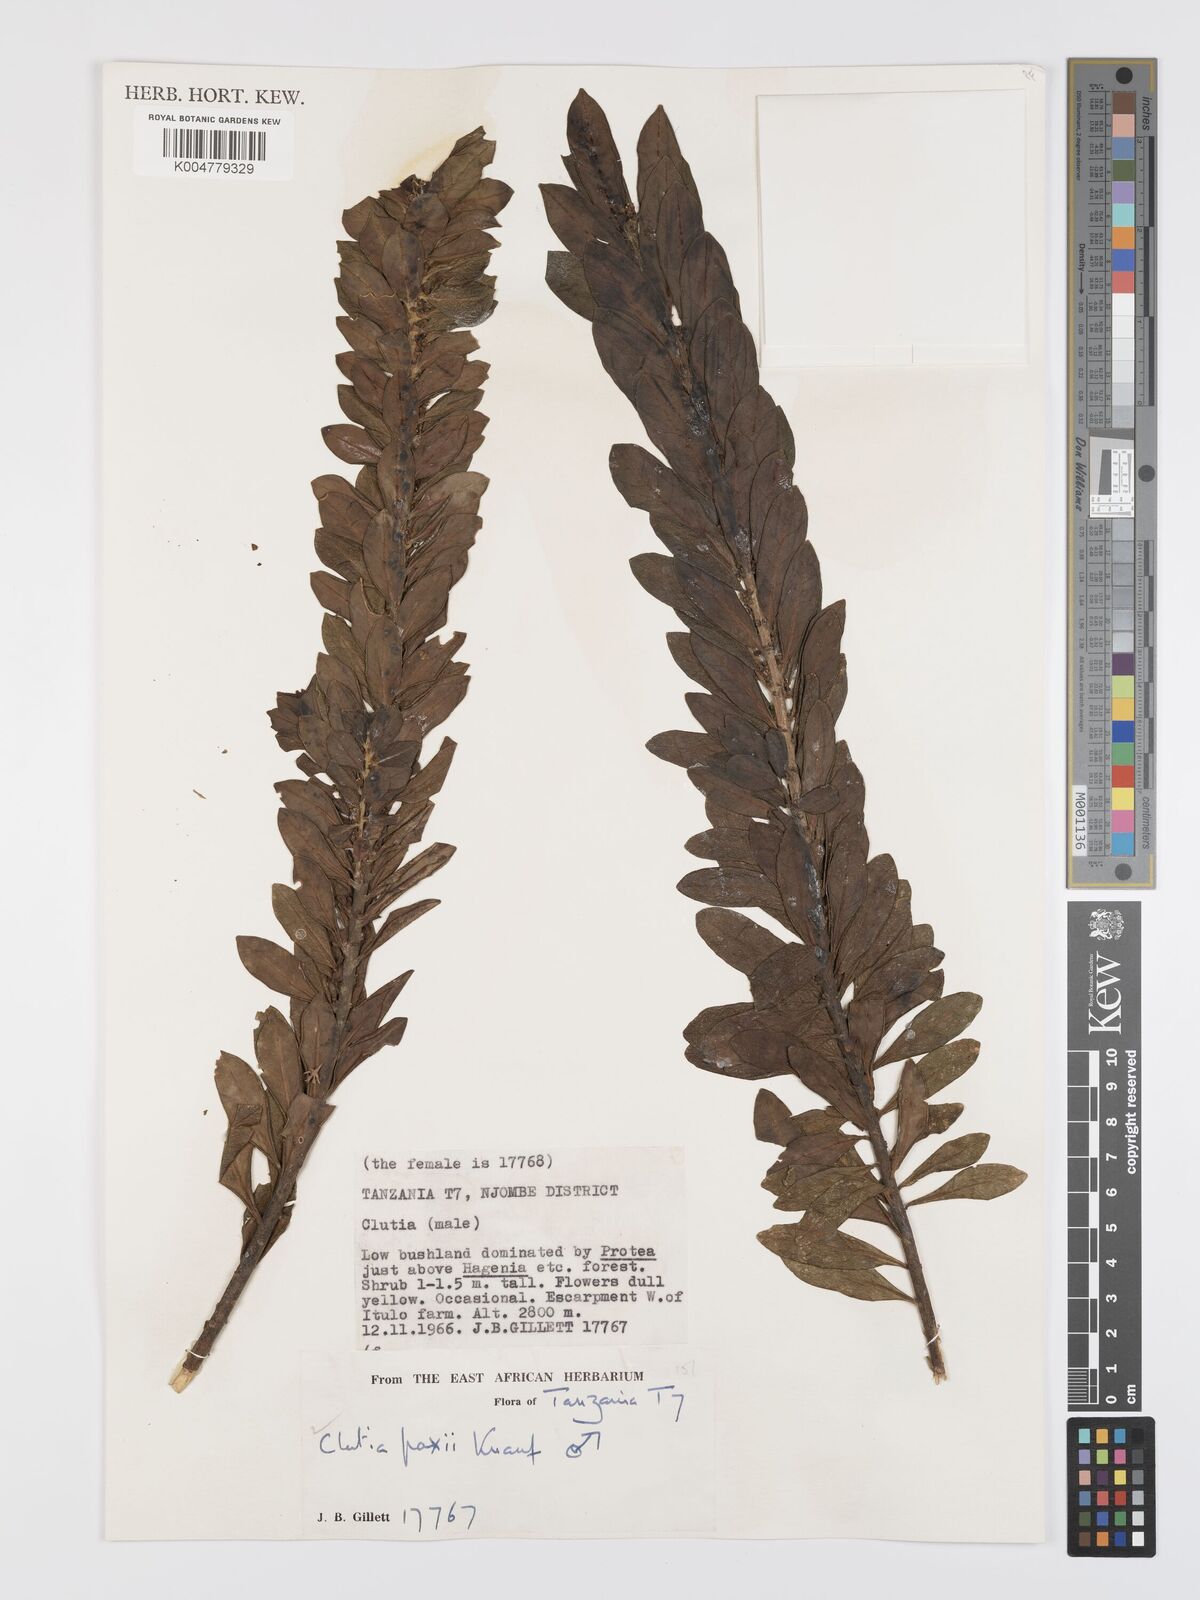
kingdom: Plantae
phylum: Tracheophyta
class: Magnoliopsida
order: Malpighiales
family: Peraceae
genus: Clutia
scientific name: Clutia paxii
